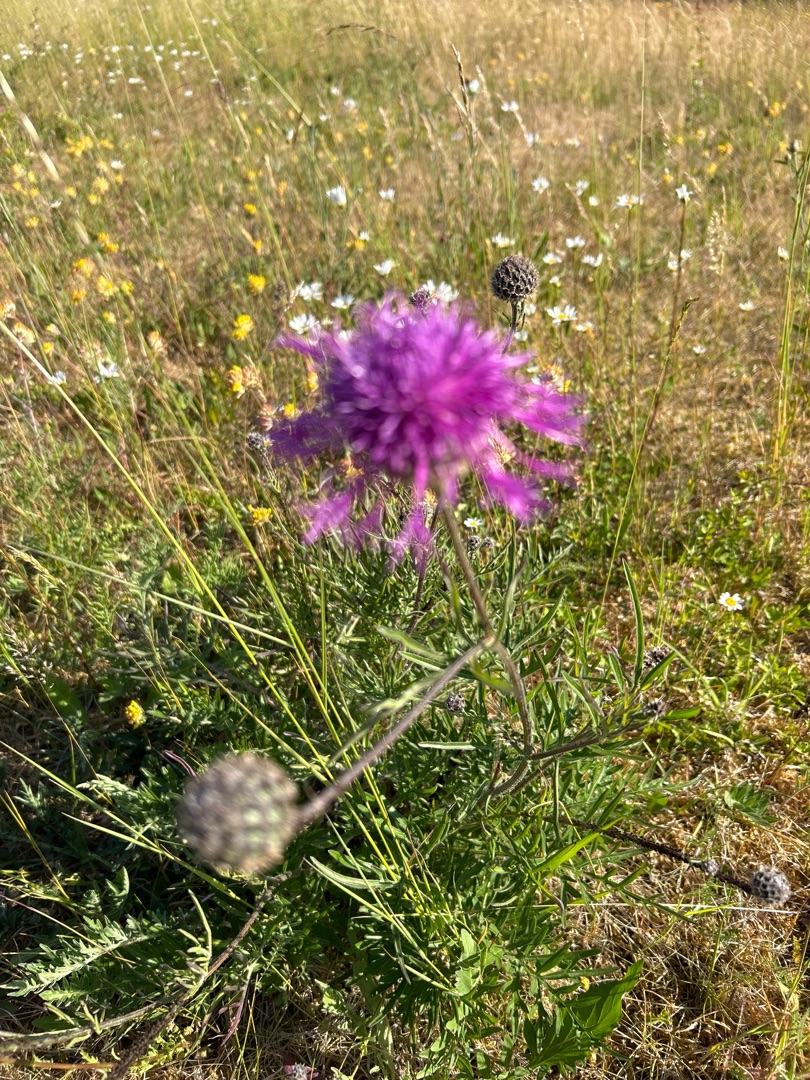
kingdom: Plantae
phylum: Tracheophyta
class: Magnoliopsida
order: Asterales
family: Asteraceae
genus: Centaurea
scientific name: Centaurea scabiosa
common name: Stor knopurt
